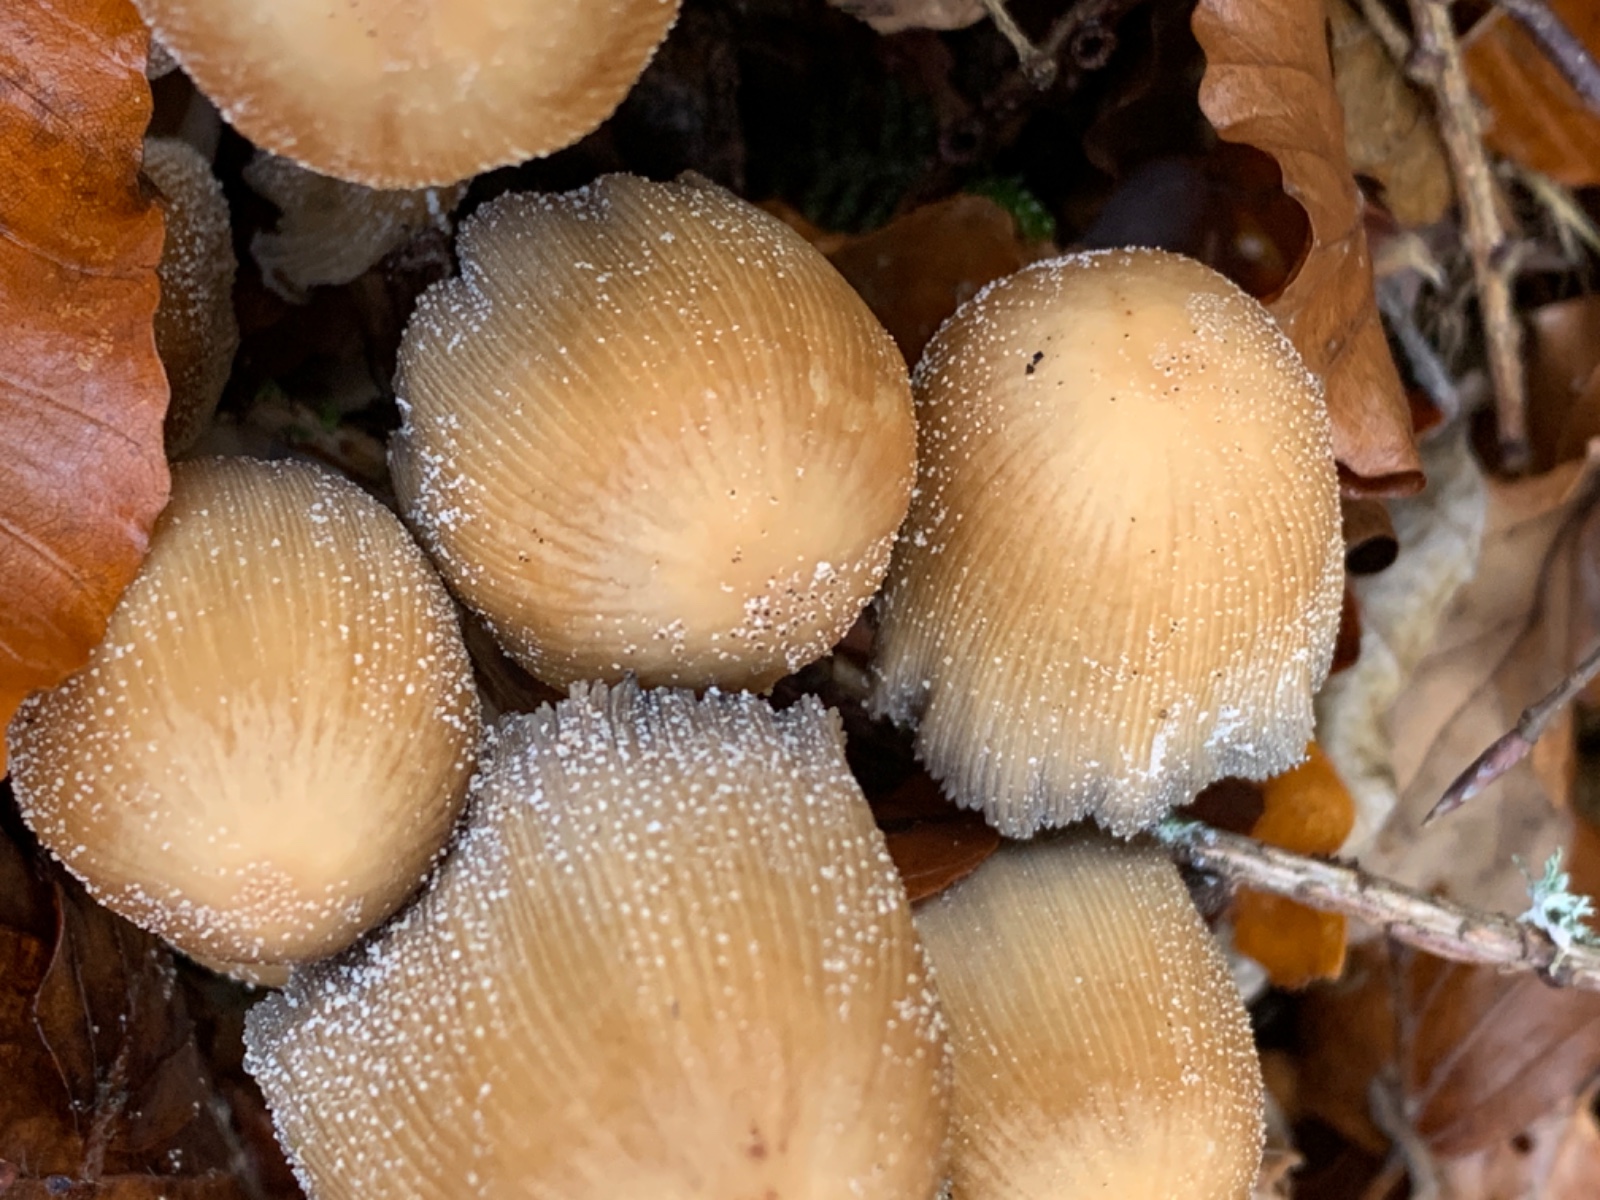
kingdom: Fungi
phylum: Basidiomycota
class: Agaricomycetes
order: Agaricales
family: Psathyrellaceae
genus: Coprinellus
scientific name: Coprinellus micaceus
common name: glimmer-blækhat
